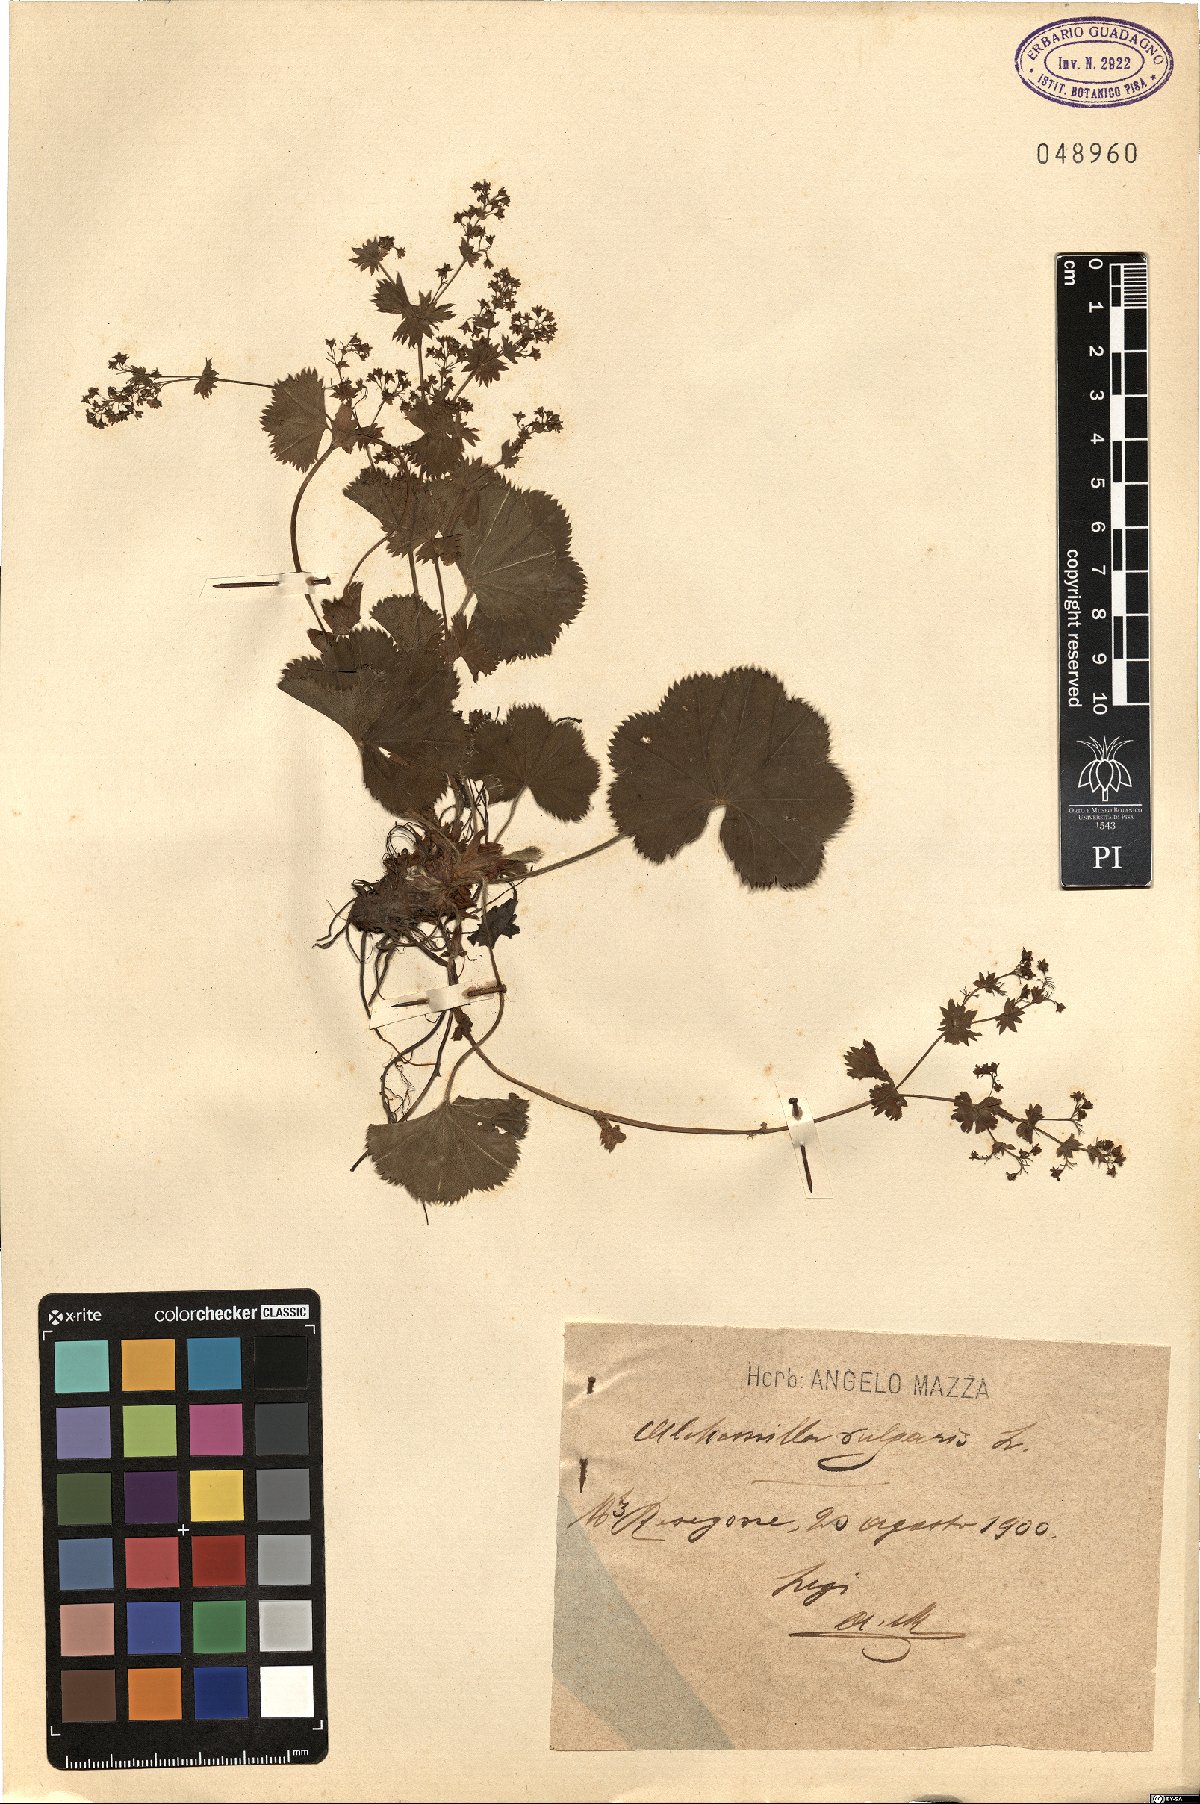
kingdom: Plantae
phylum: Tracheophyta
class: Magnoliopsida
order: Rosales
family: Rosaceae
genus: Alchemilla
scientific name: Alchemilla fallax
